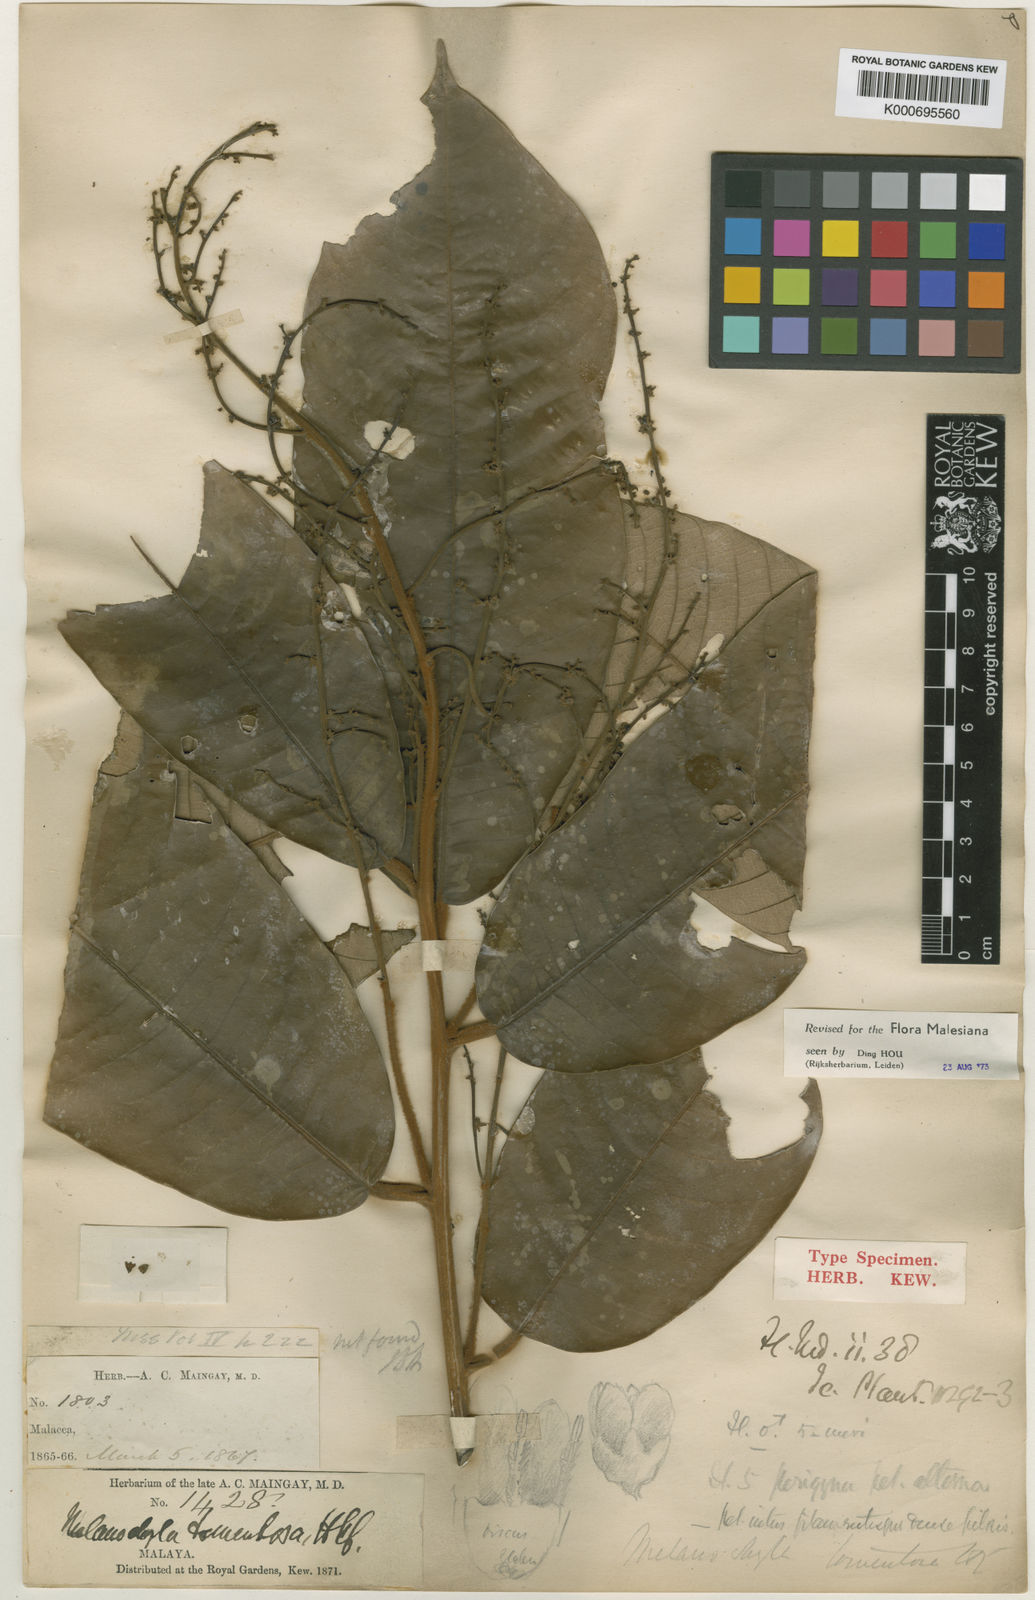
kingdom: Plantae
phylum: Tracheophyta
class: Magnoliopsida
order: Sapindales
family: Anacardiaceae
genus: Melanochyla
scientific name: Melanochyla tomentosa
